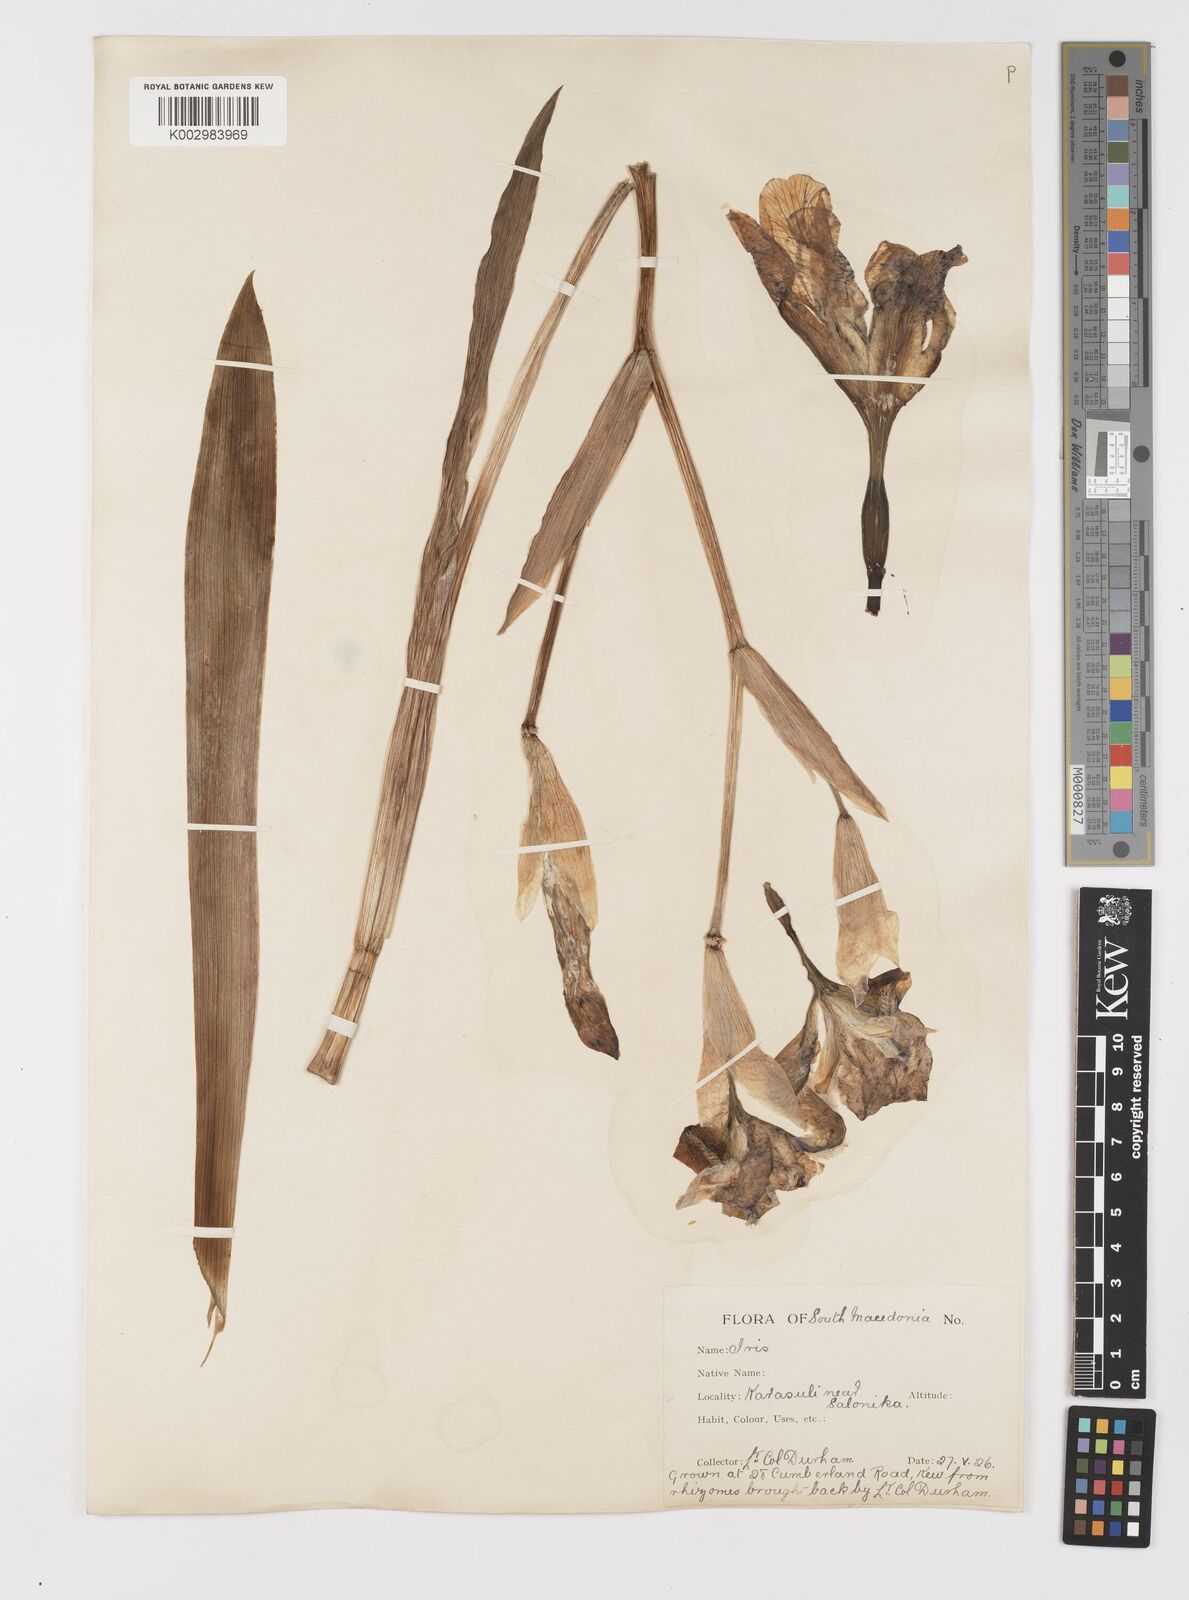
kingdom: Plantae
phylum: Tracheophyta
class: Liliopsida
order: Asparagales
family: Iridaceae
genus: Iris
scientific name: Iris germanica
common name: German iris
